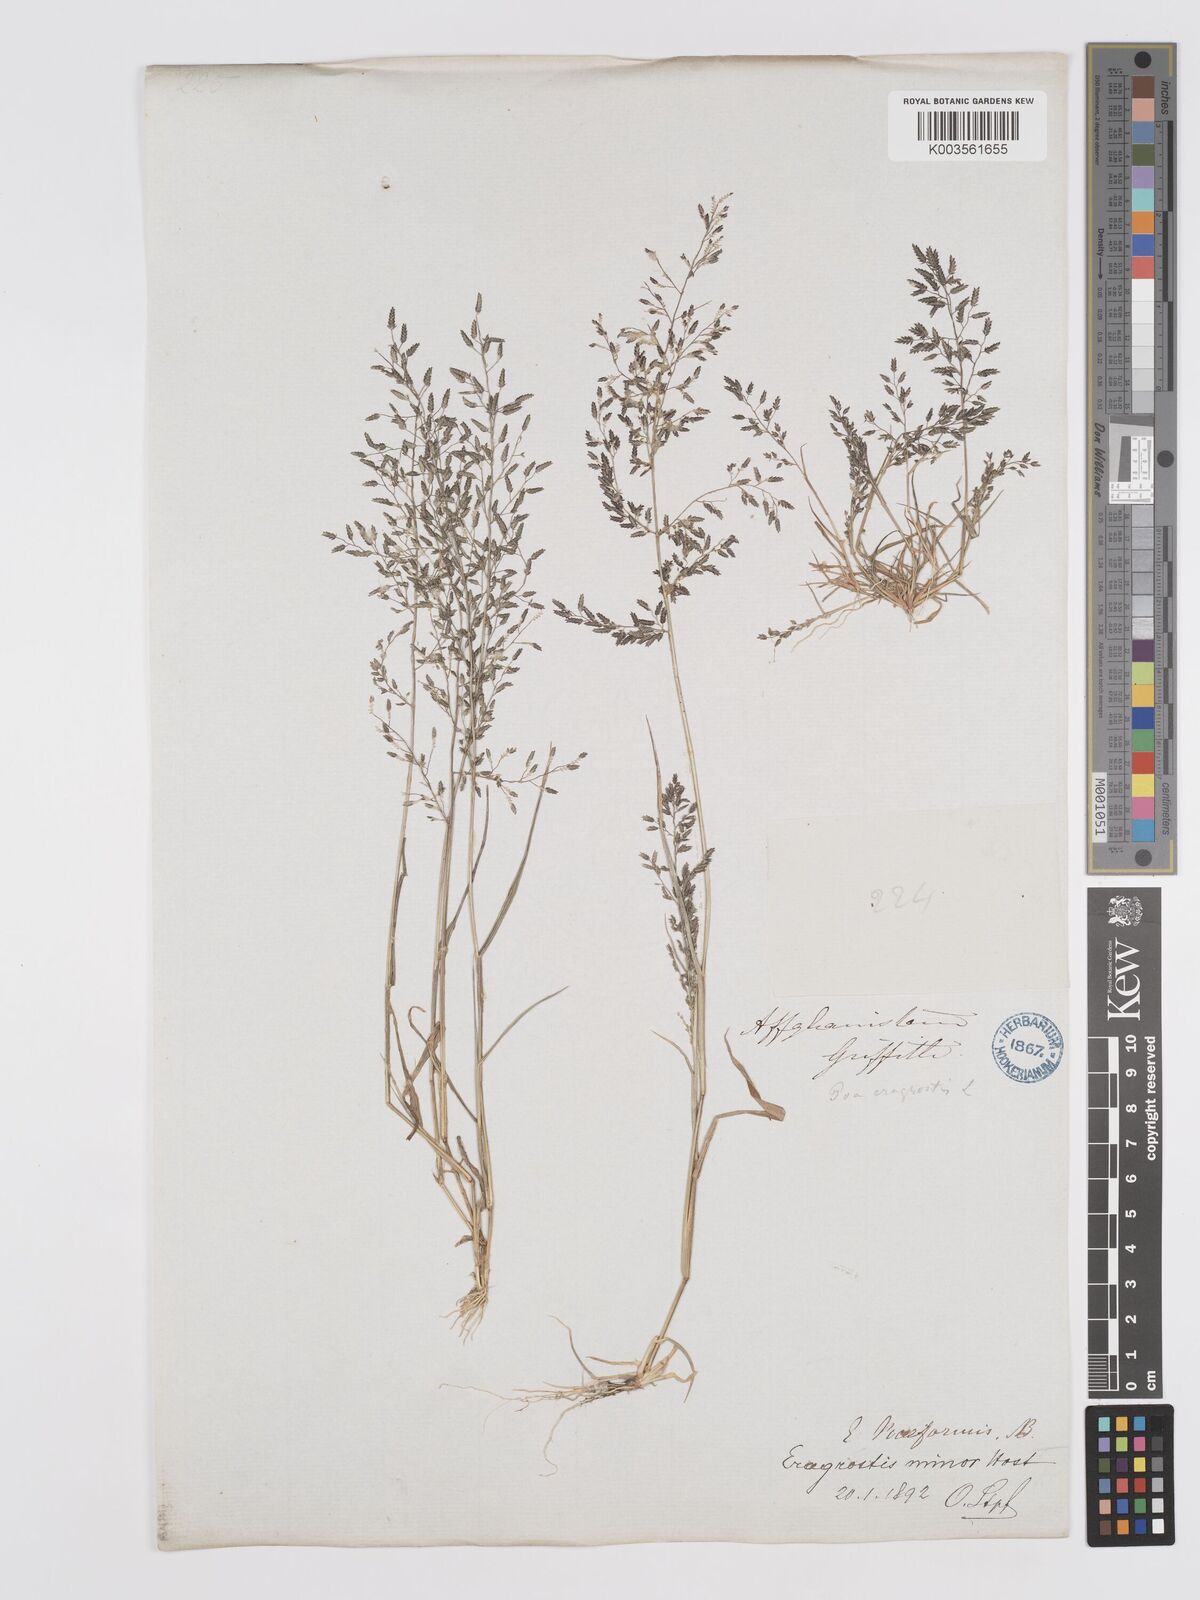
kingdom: Plantae
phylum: Tracheophyta
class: Liliopsida
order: Poales
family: Poaceae
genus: Eragrostis
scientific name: Eragrostis minor
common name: Small love-grass
